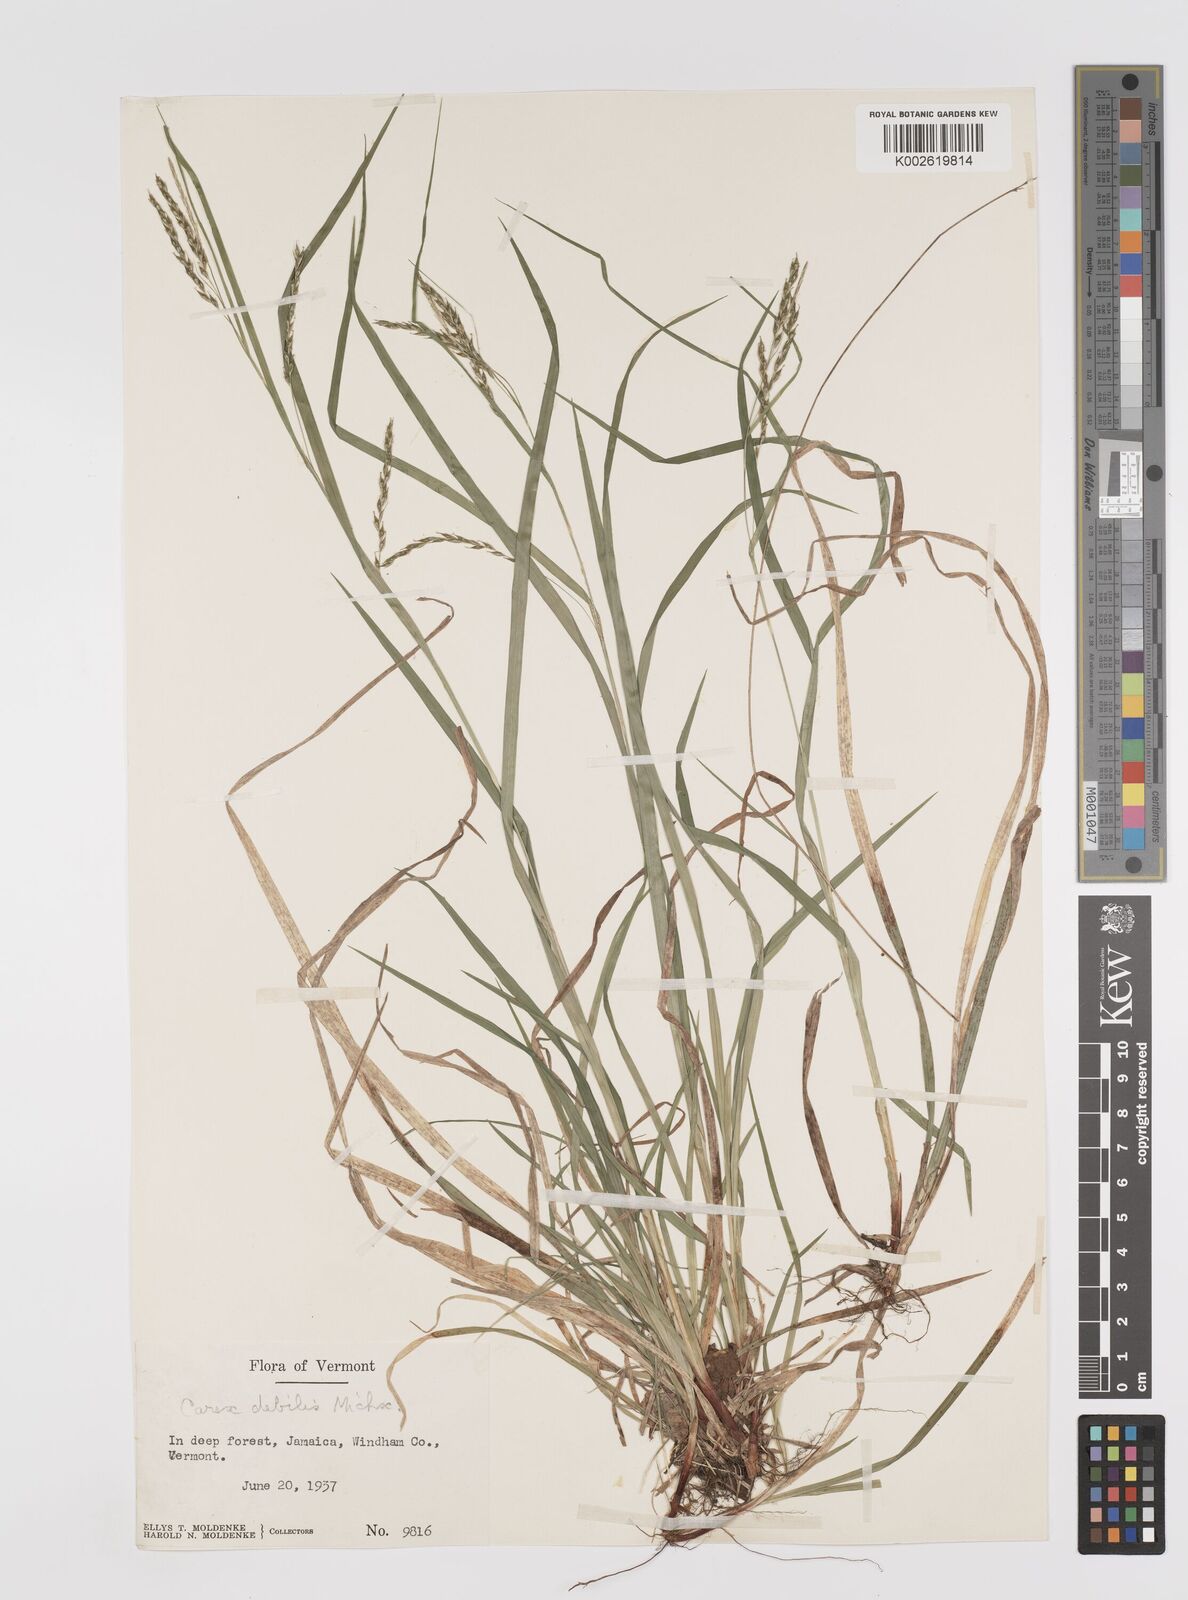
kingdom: Plantae
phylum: Tracheophyta
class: Liliopsida
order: Poales
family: Cyperaceae
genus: Carex
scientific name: Carex debilis
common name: White-edge sedge
